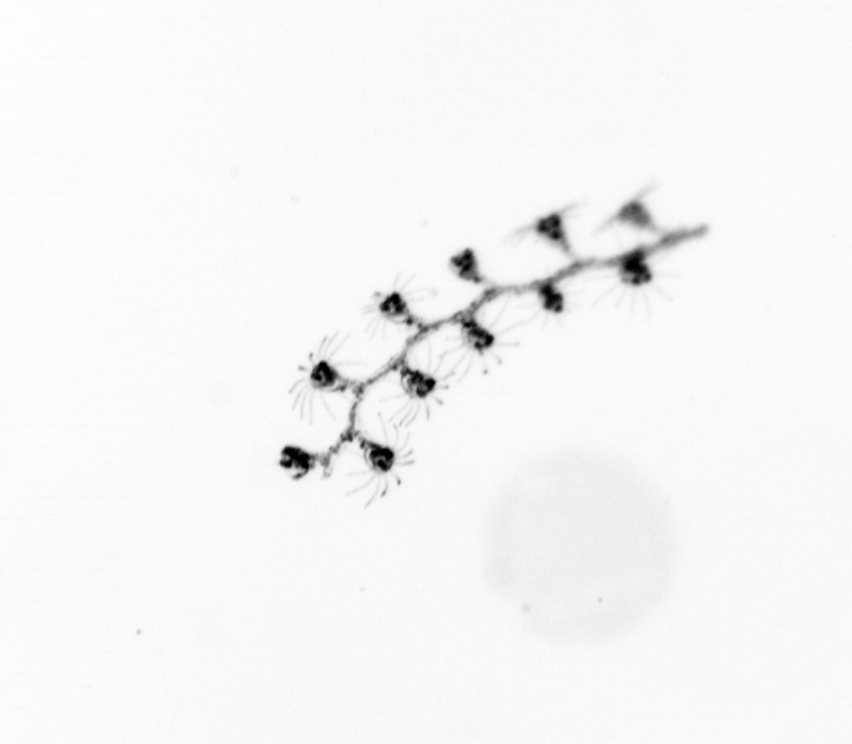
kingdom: Animalia
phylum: Cnidaria
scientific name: Cnidaria
